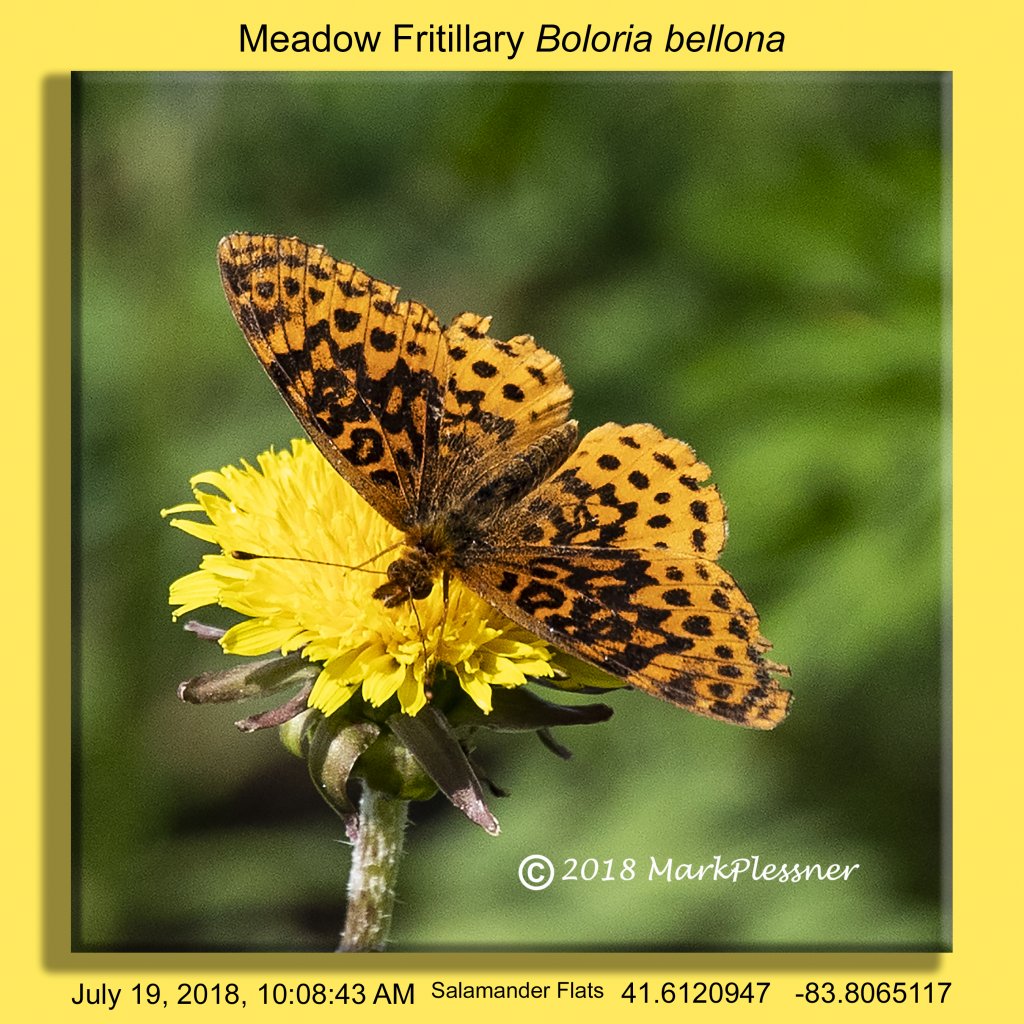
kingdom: Animalia
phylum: Arthropoda
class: Insecta
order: Lepidoptera
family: Nymphalidae
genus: Clossiana
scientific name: Clossiana toddi
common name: Meadow Fritillary
